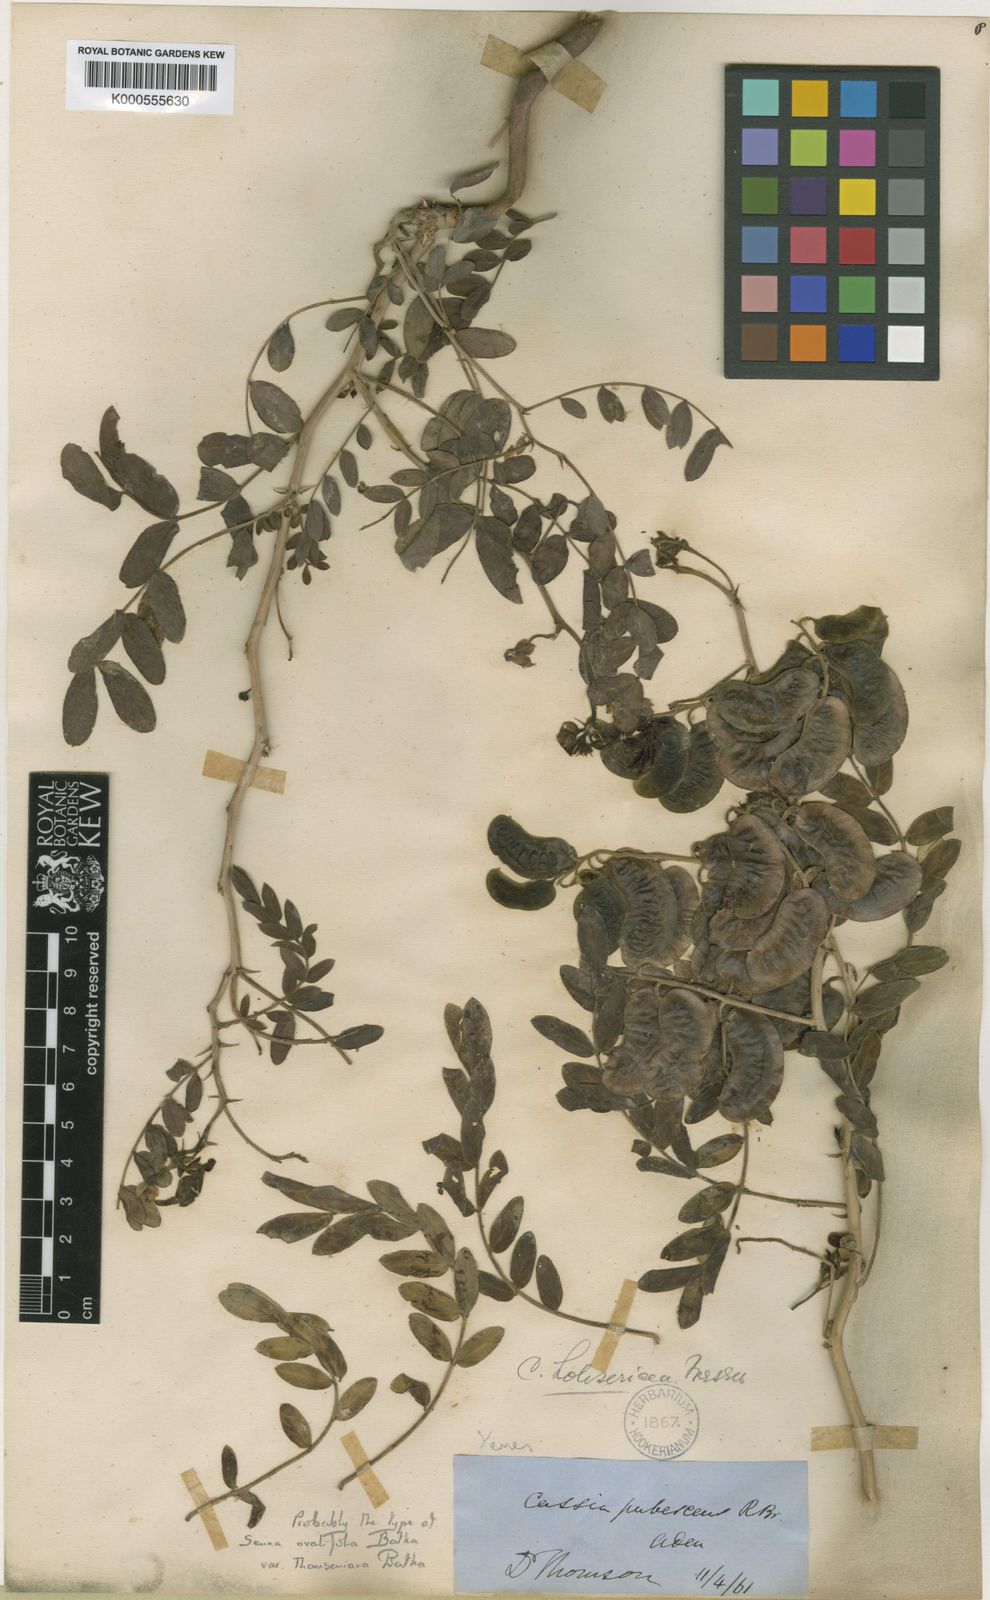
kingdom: Plantae
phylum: Tracheophyta
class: Magnoliopsida
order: Fabales
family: Fabaceae
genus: Senna
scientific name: Senna holosericea
